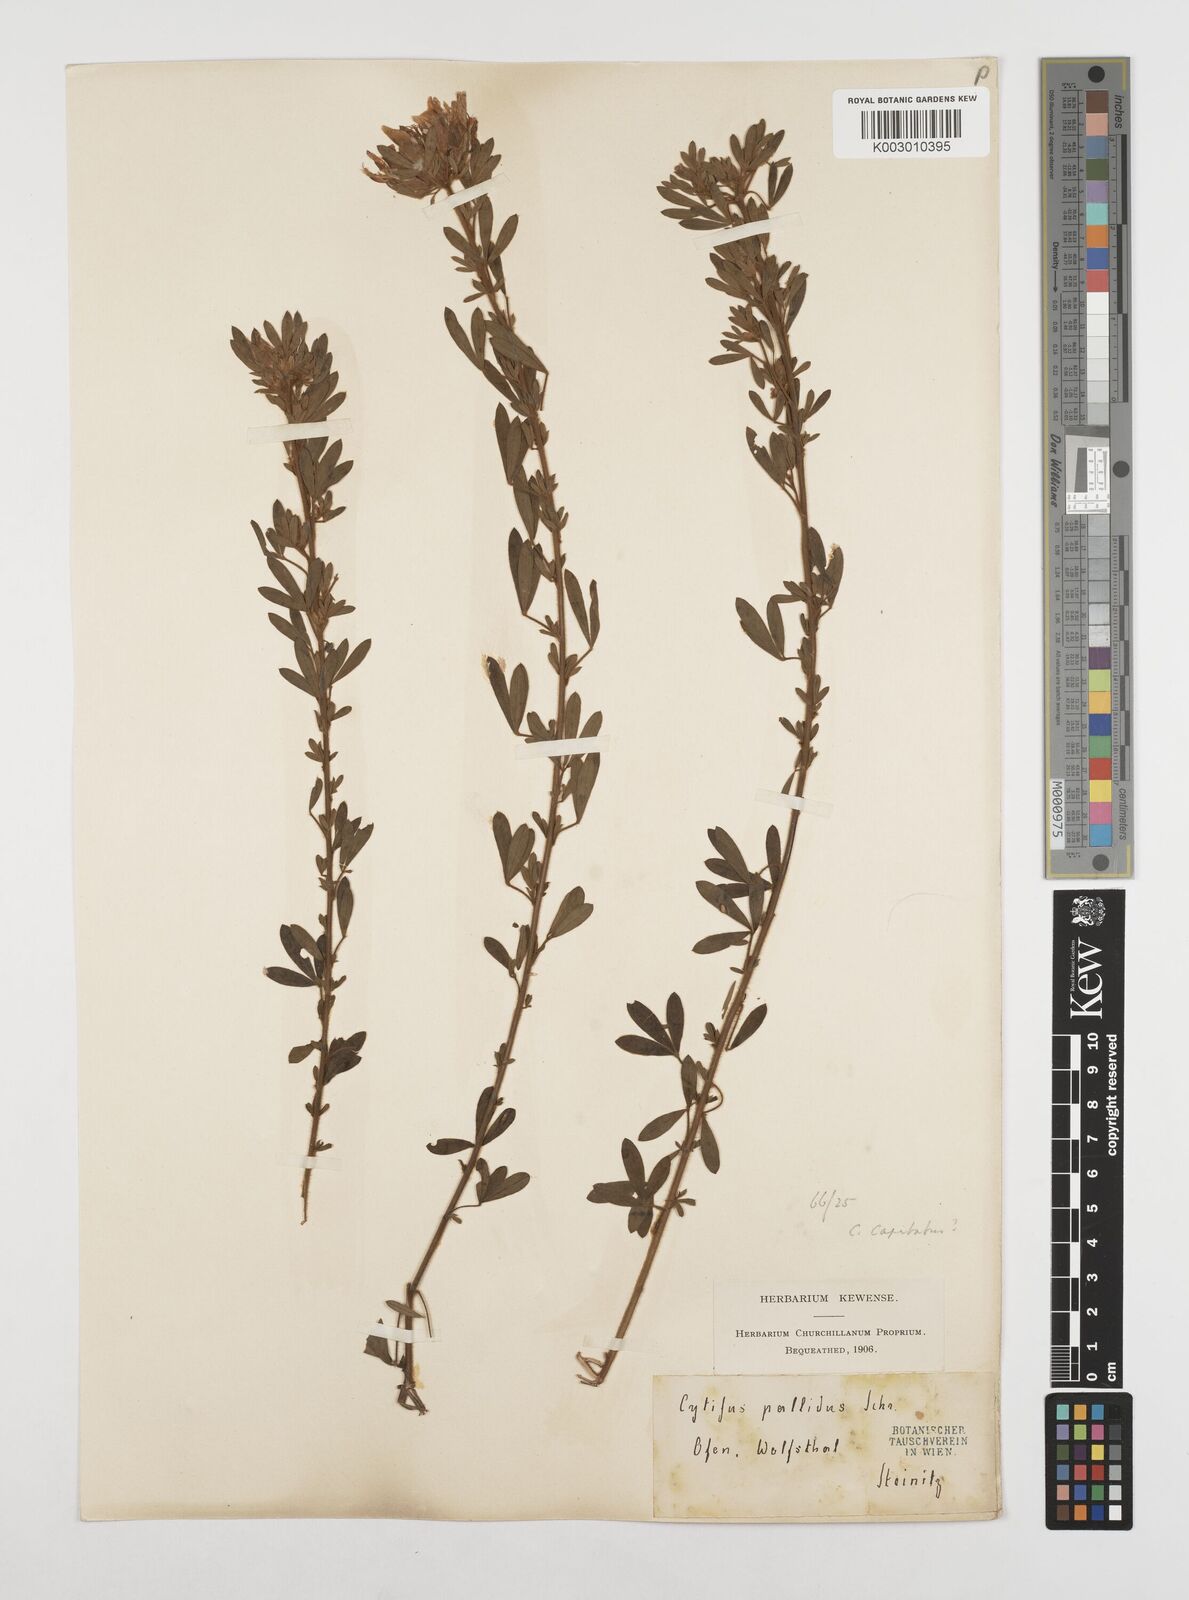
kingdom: Plantae
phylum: Tracheophyta
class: Magnoliopsida
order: Fabales
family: Fabaceae
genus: Chamaecytisus
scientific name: Chamaecytisus rochelii
